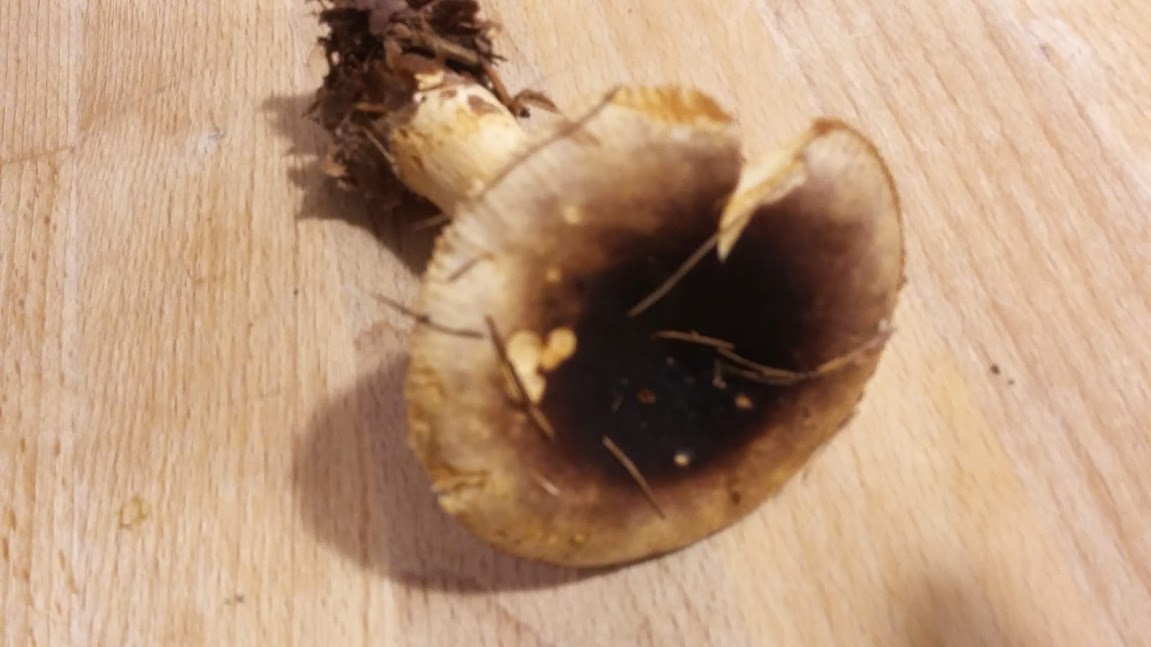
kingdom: Fungi
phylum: Basidiomycota
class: Agaricomycetes
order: Russulales
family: Russulaceae
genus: Russula
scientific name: Russula puellaris
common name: gulstokket skørhat
